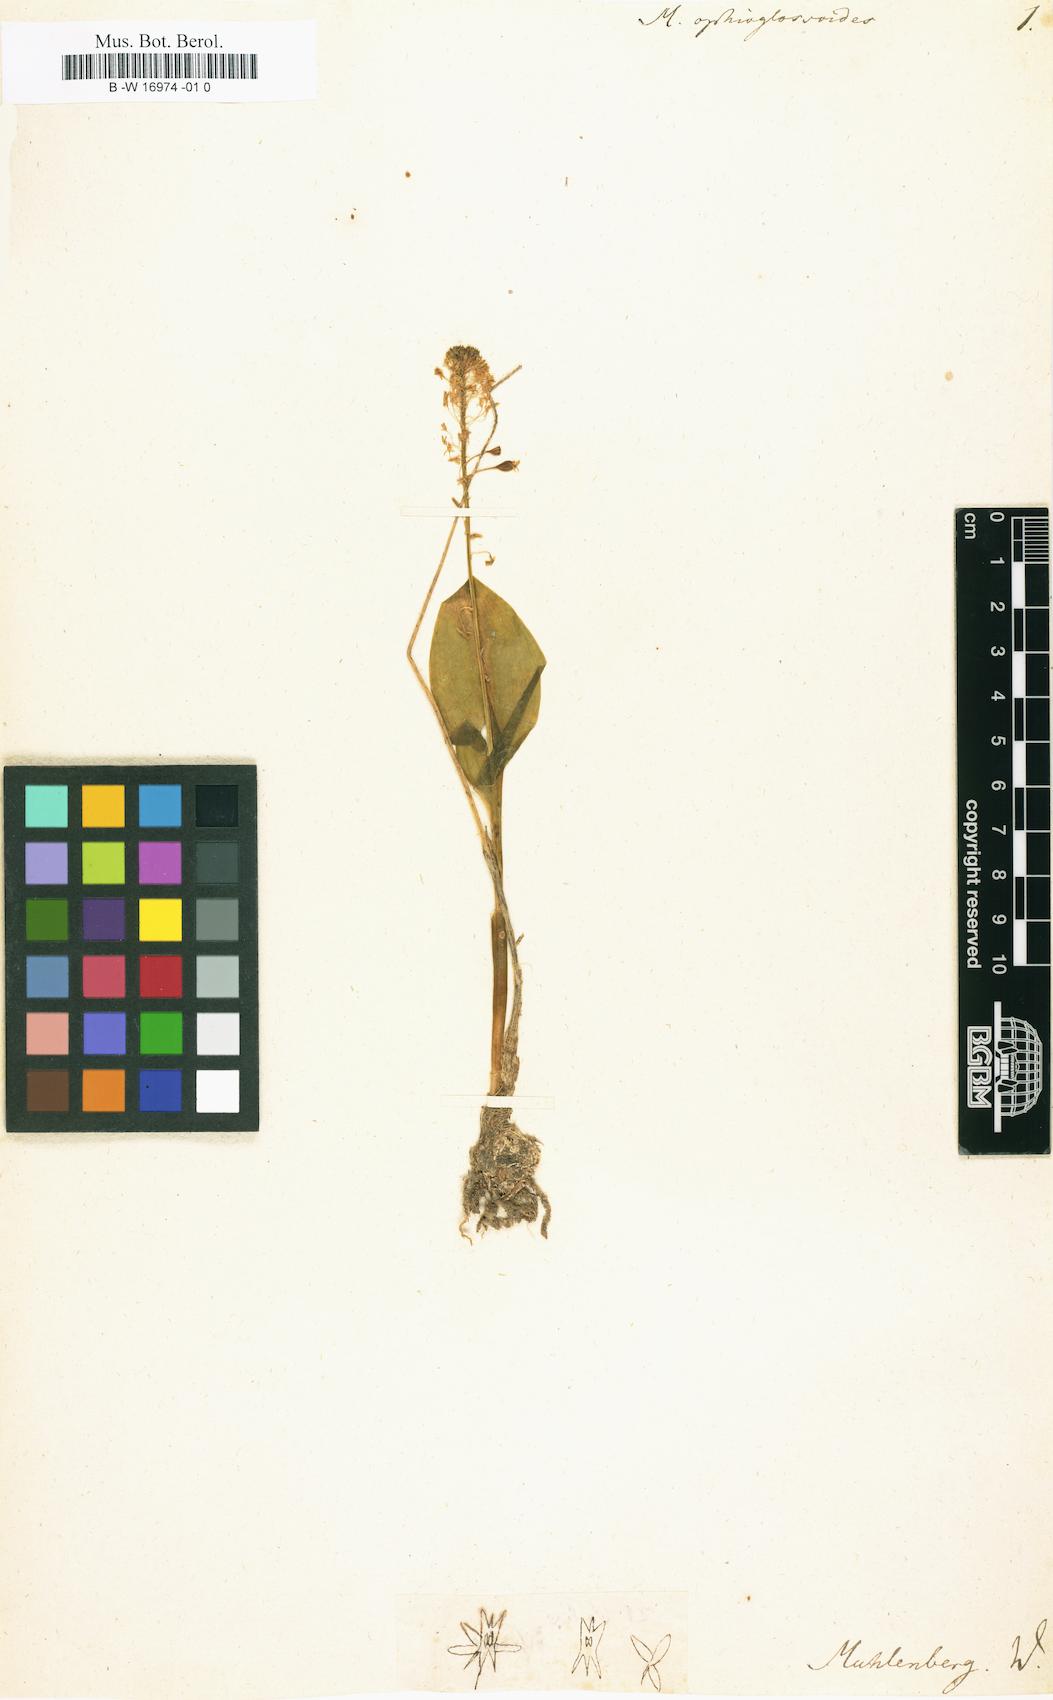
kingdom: Plantae
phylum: Tracheophyta
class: Liliopsida
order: Asparagales
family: Orchidaceae
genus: Malaxis
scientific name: Malaxis unifolia
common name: Green adder's-mouth
